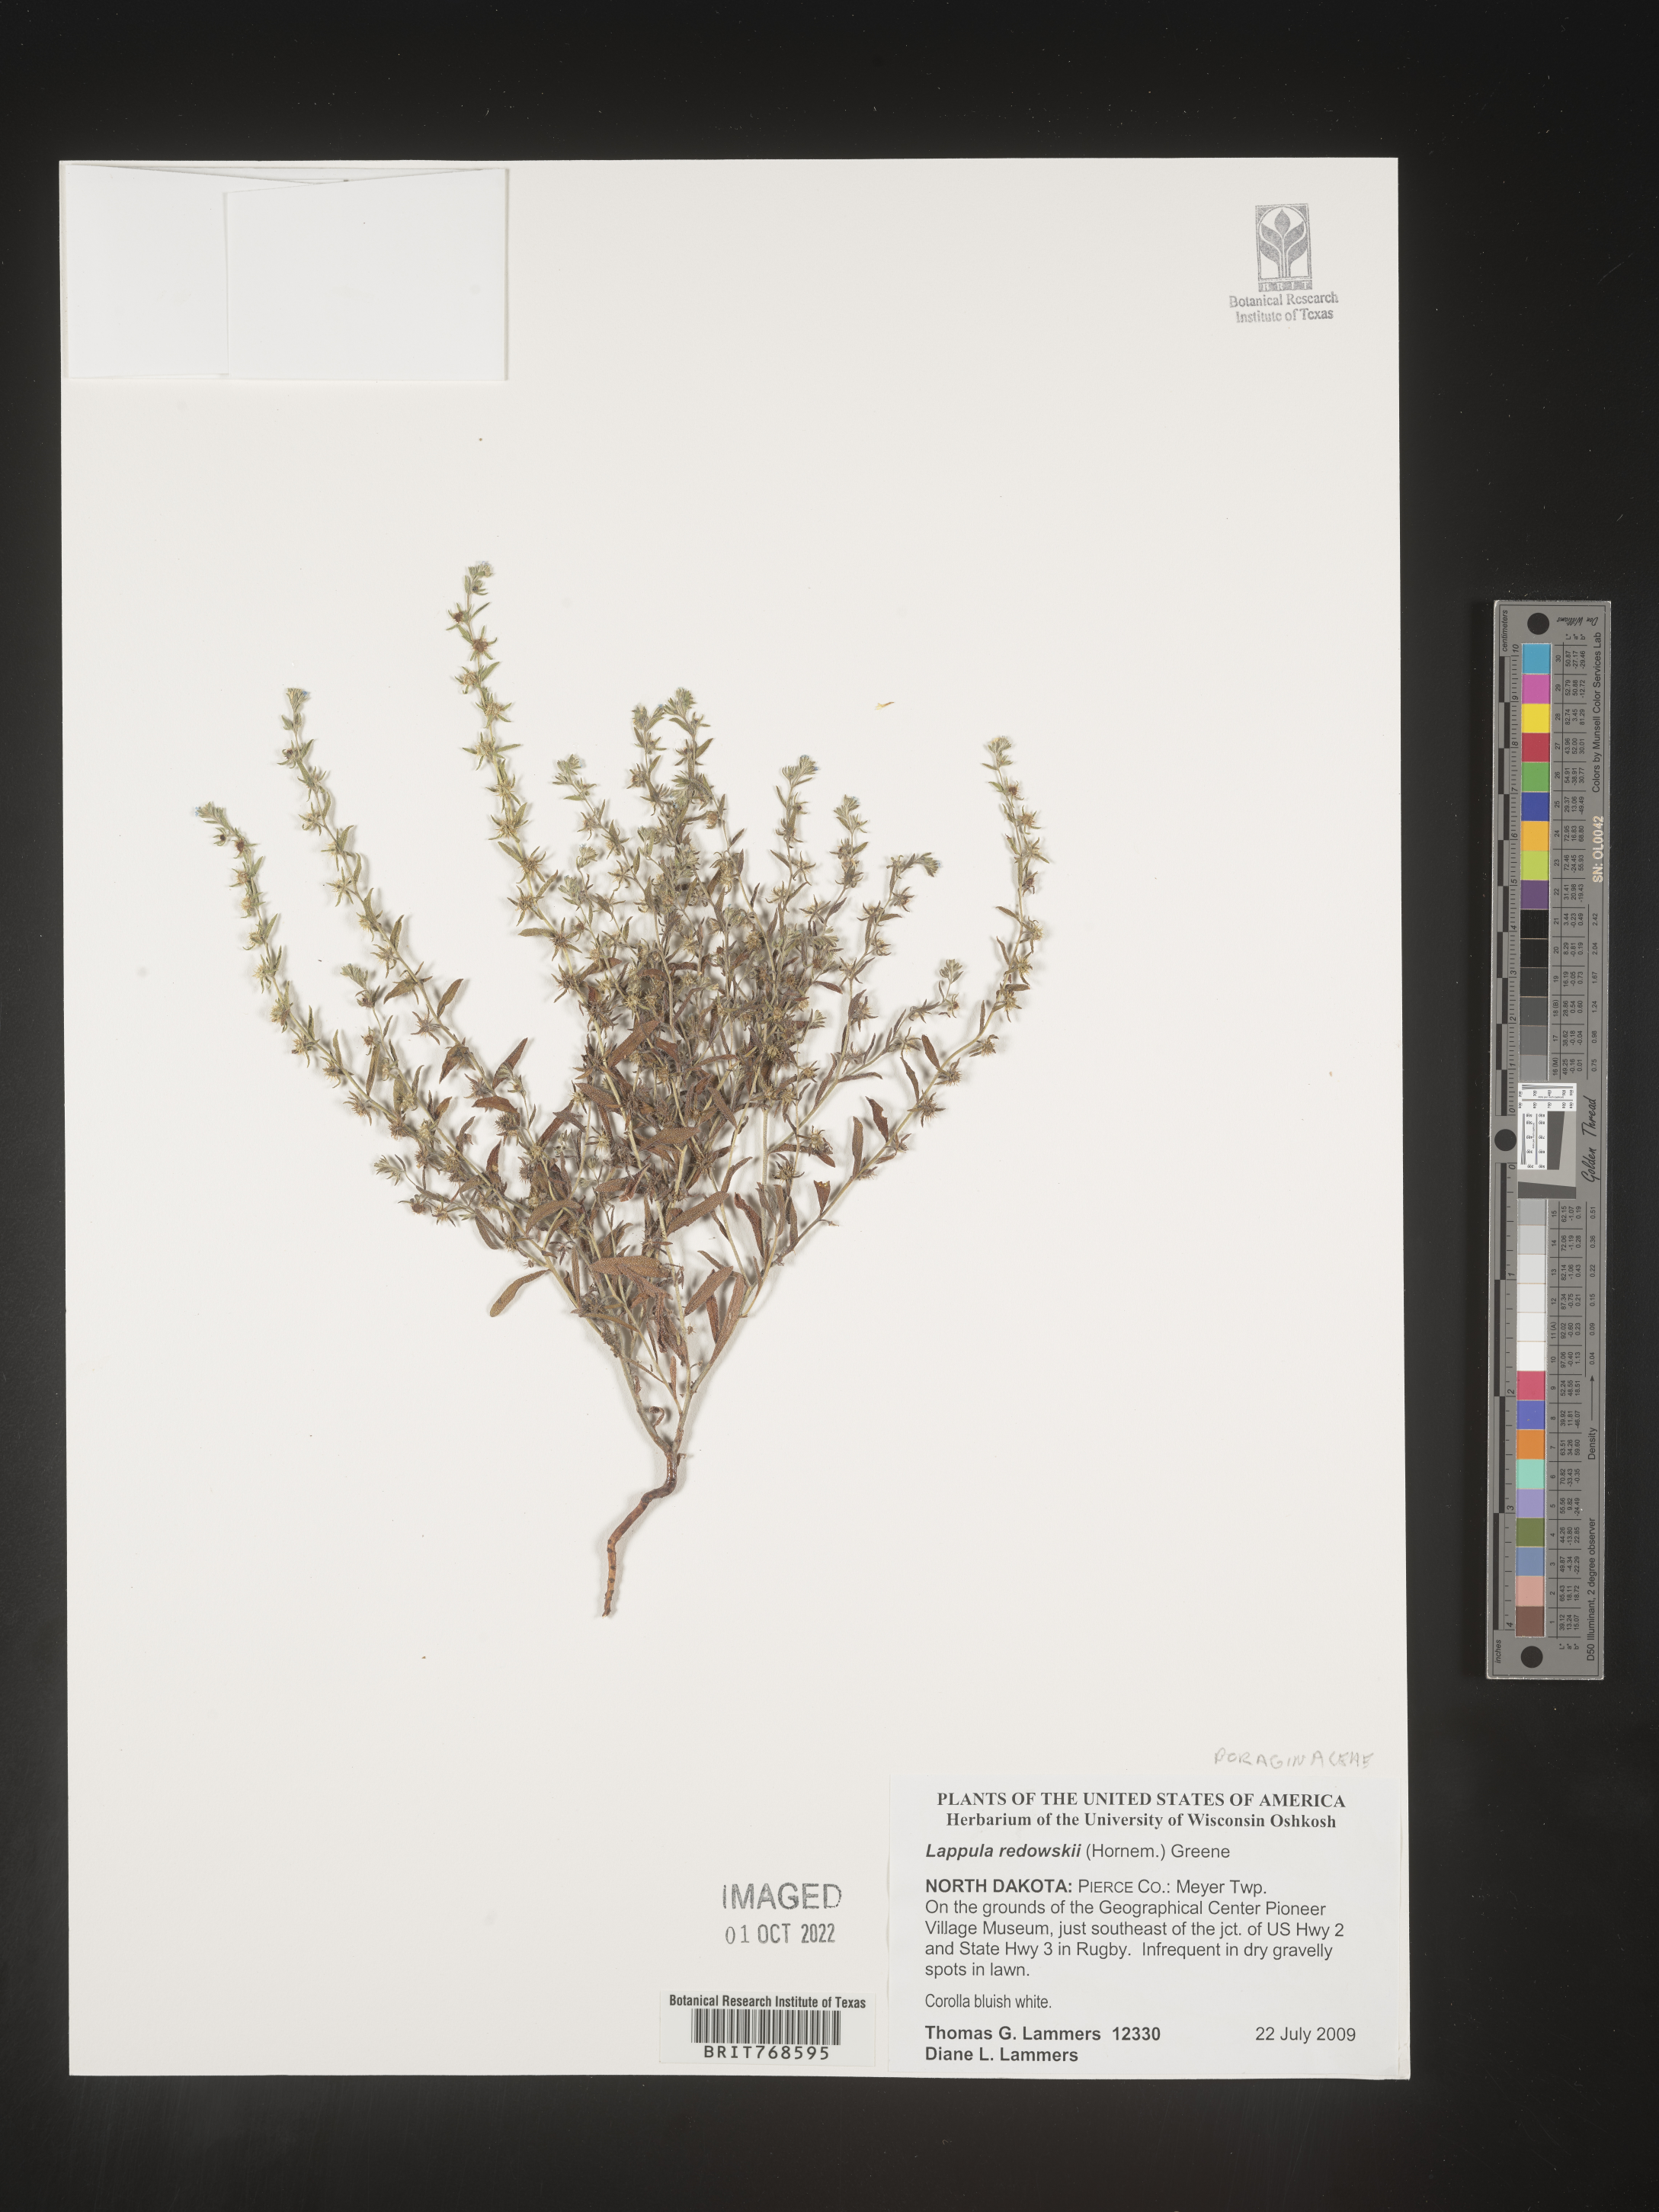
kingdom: Plantae
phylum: Tracheophyta
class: Magnoliopsida
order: Boraginales
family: Boraginaceae
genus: Lappula
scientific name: Lappula redowskii
